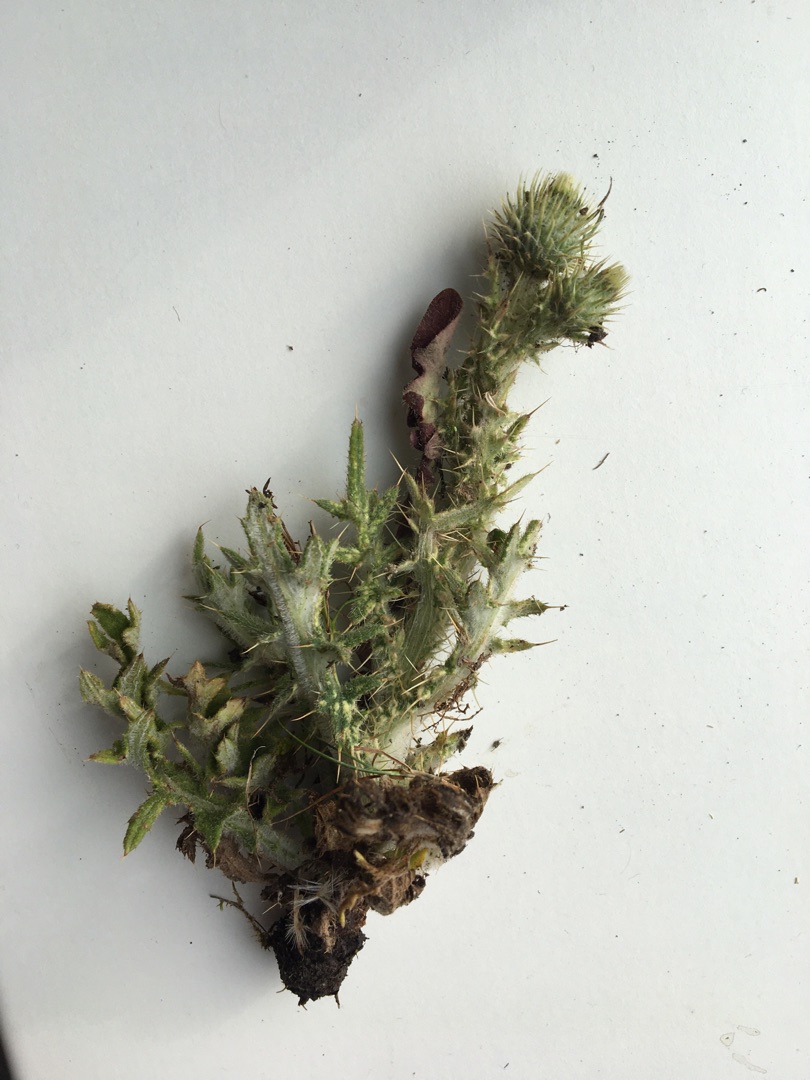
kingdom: Plantae
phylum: Tracheophyta
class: Magnoliopsida
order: Asterales
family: Asteraceae
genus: Cirsium
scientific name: Cirsium vulgare
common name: Horse-tidsel
